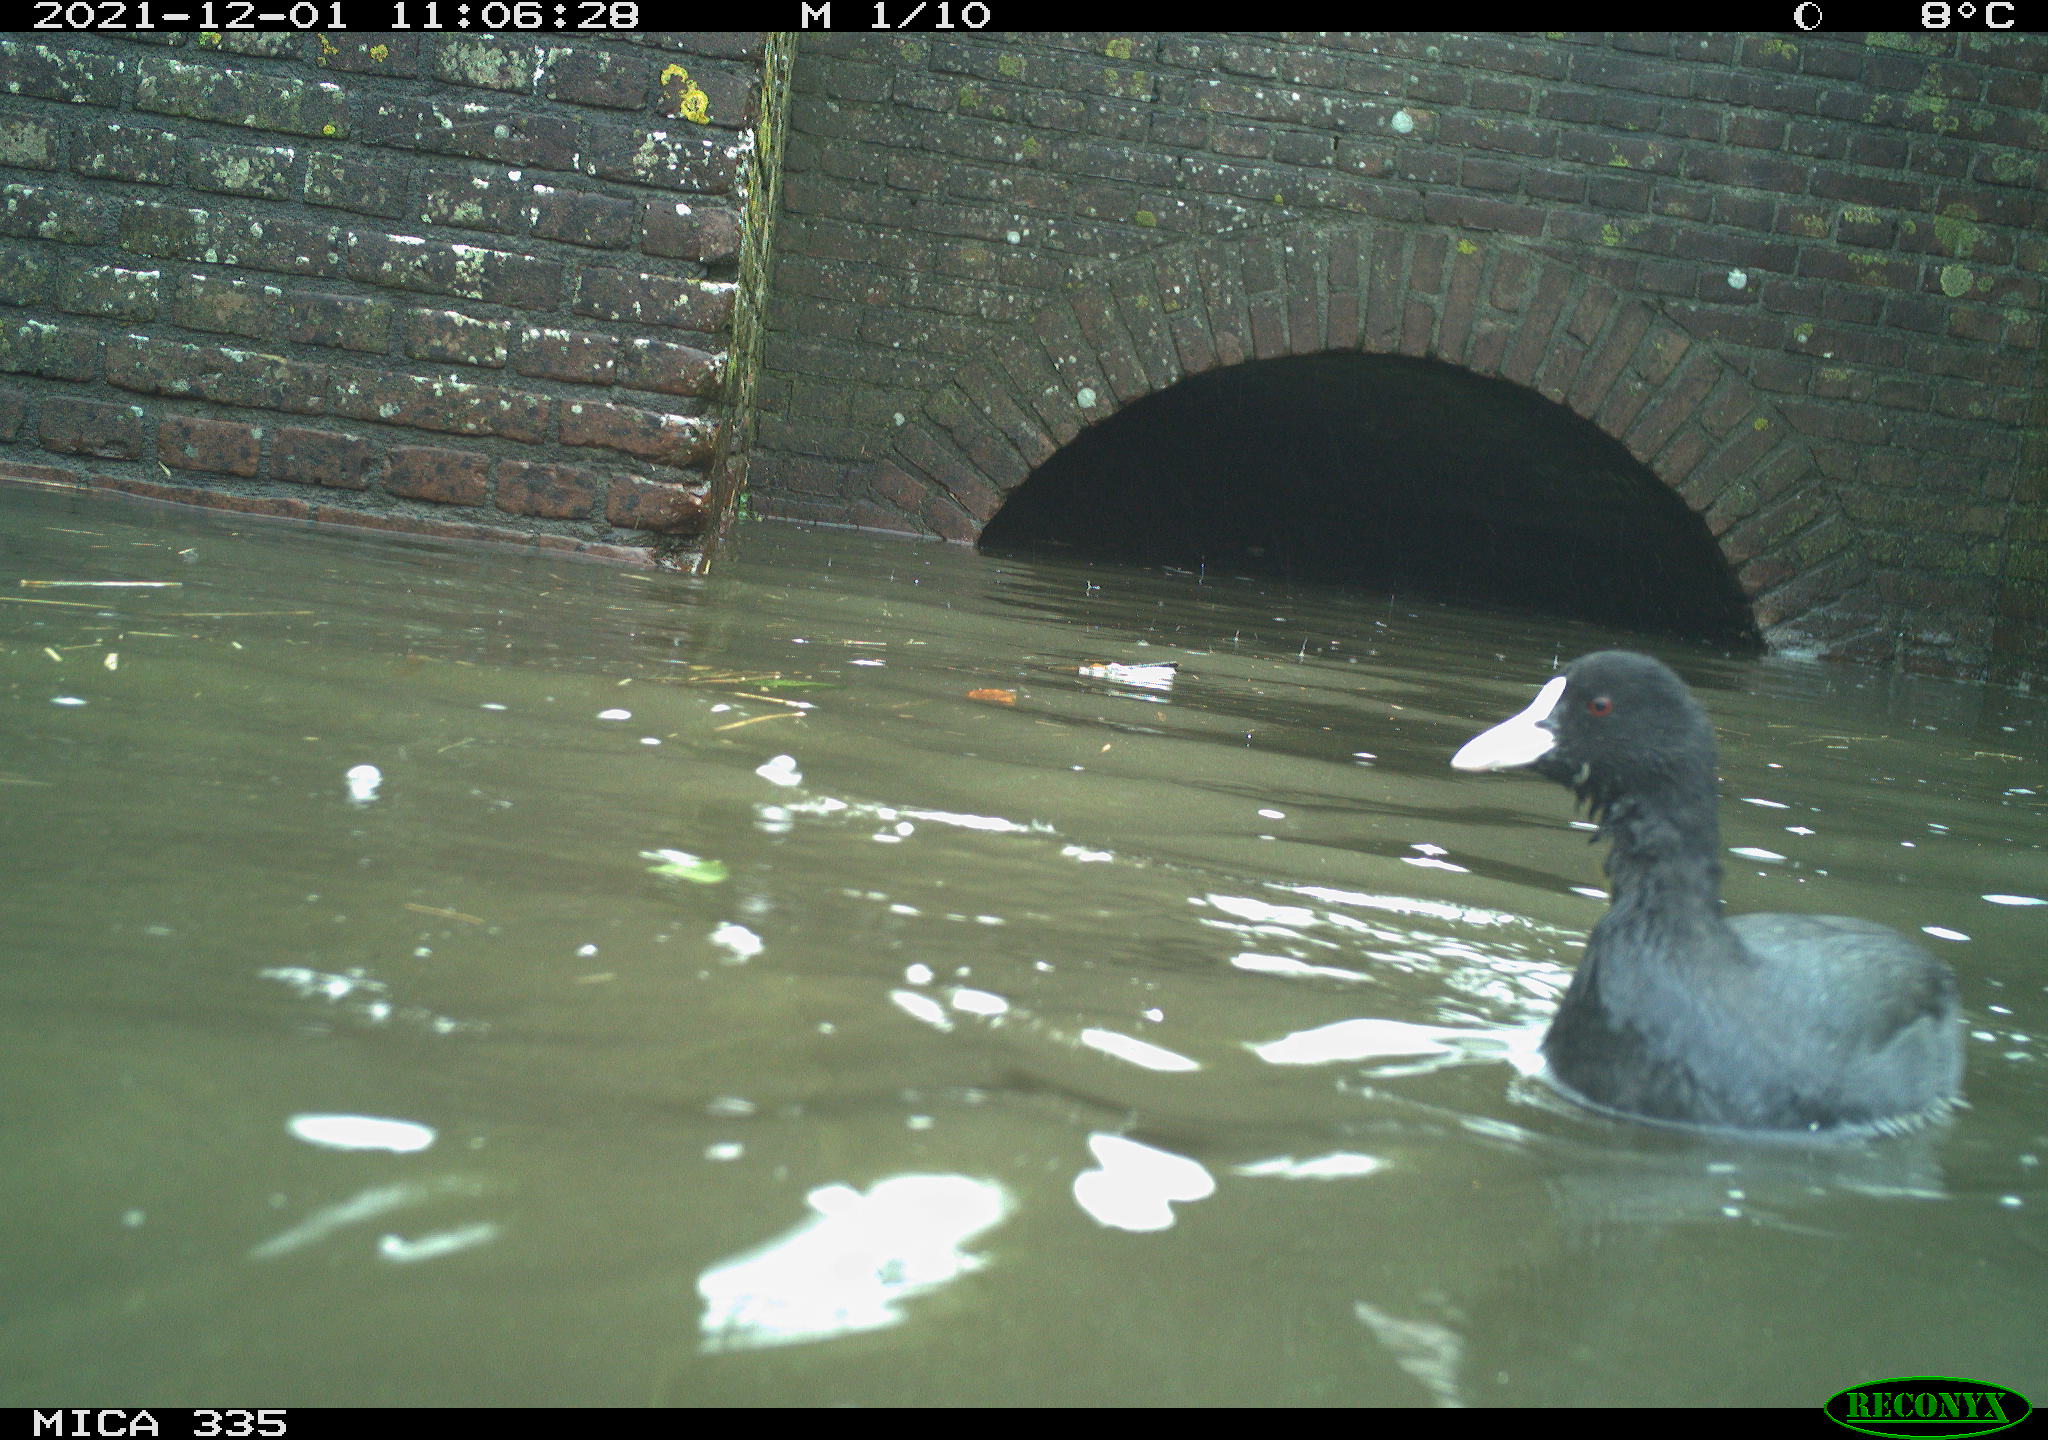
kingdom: Animalia
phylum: Chordata
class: Aves
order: Gruiformes
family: Rallidae
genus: Fulica
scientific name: Fulica atra
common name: Eurasian coot
